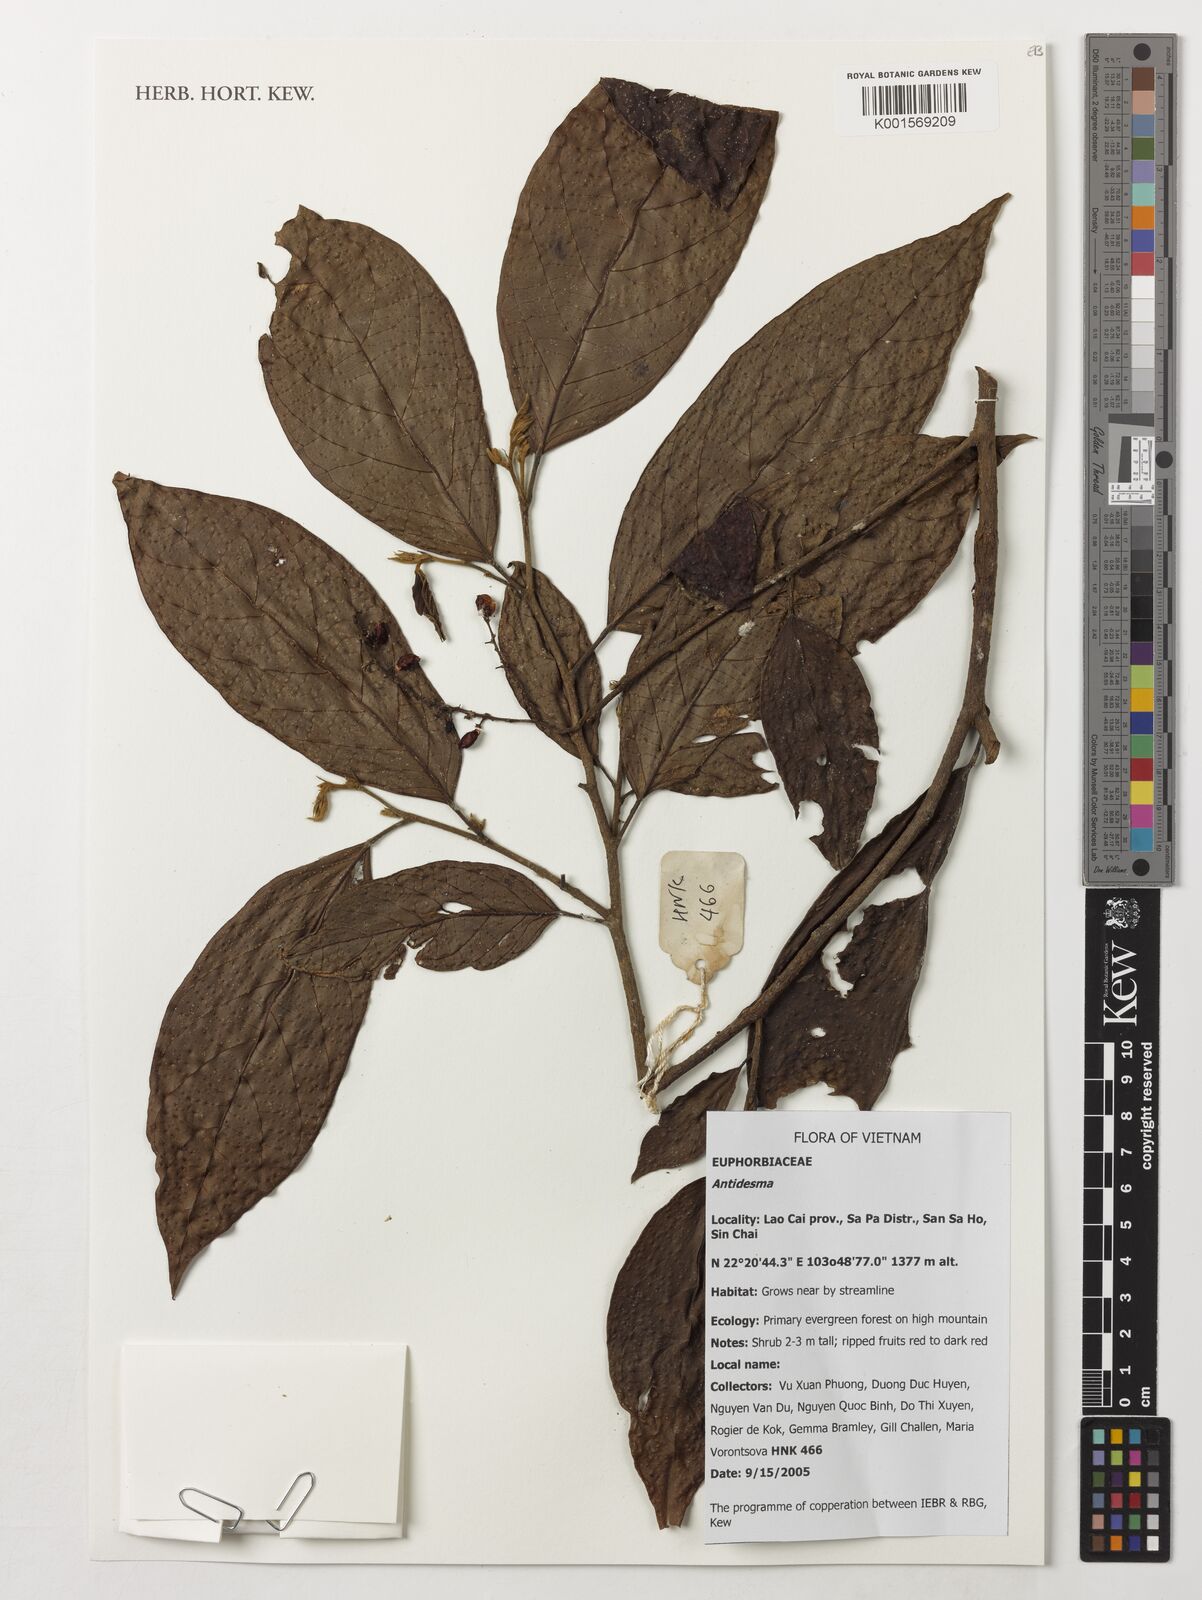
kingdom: Plantae
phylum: Tracheophyta
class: Magnoliopsida
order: Malpighiales
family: Phyllanthaceae
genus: Antidesma
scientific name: Antidesma
